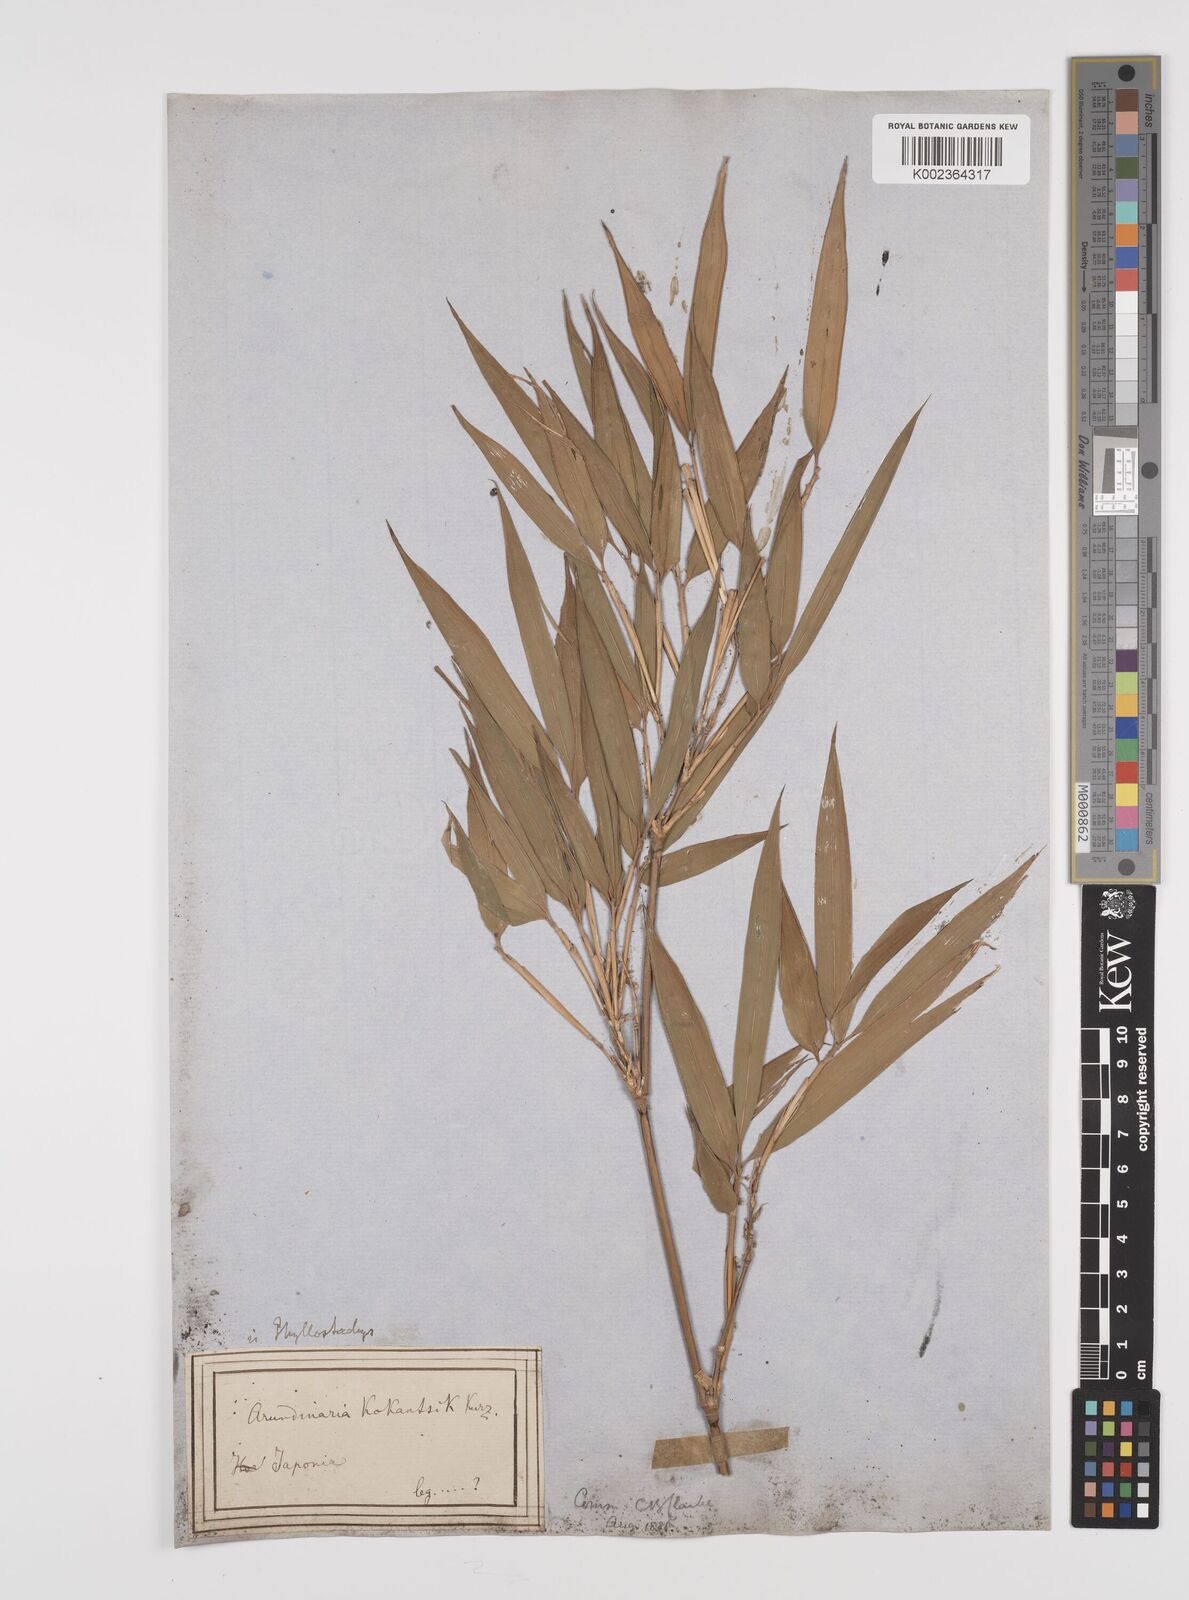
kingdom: Plantae
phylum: Tracheophyta
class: Liliopsida
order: Poales
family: Poaceae
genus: Phyllostachys
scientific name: Phyllostachys
